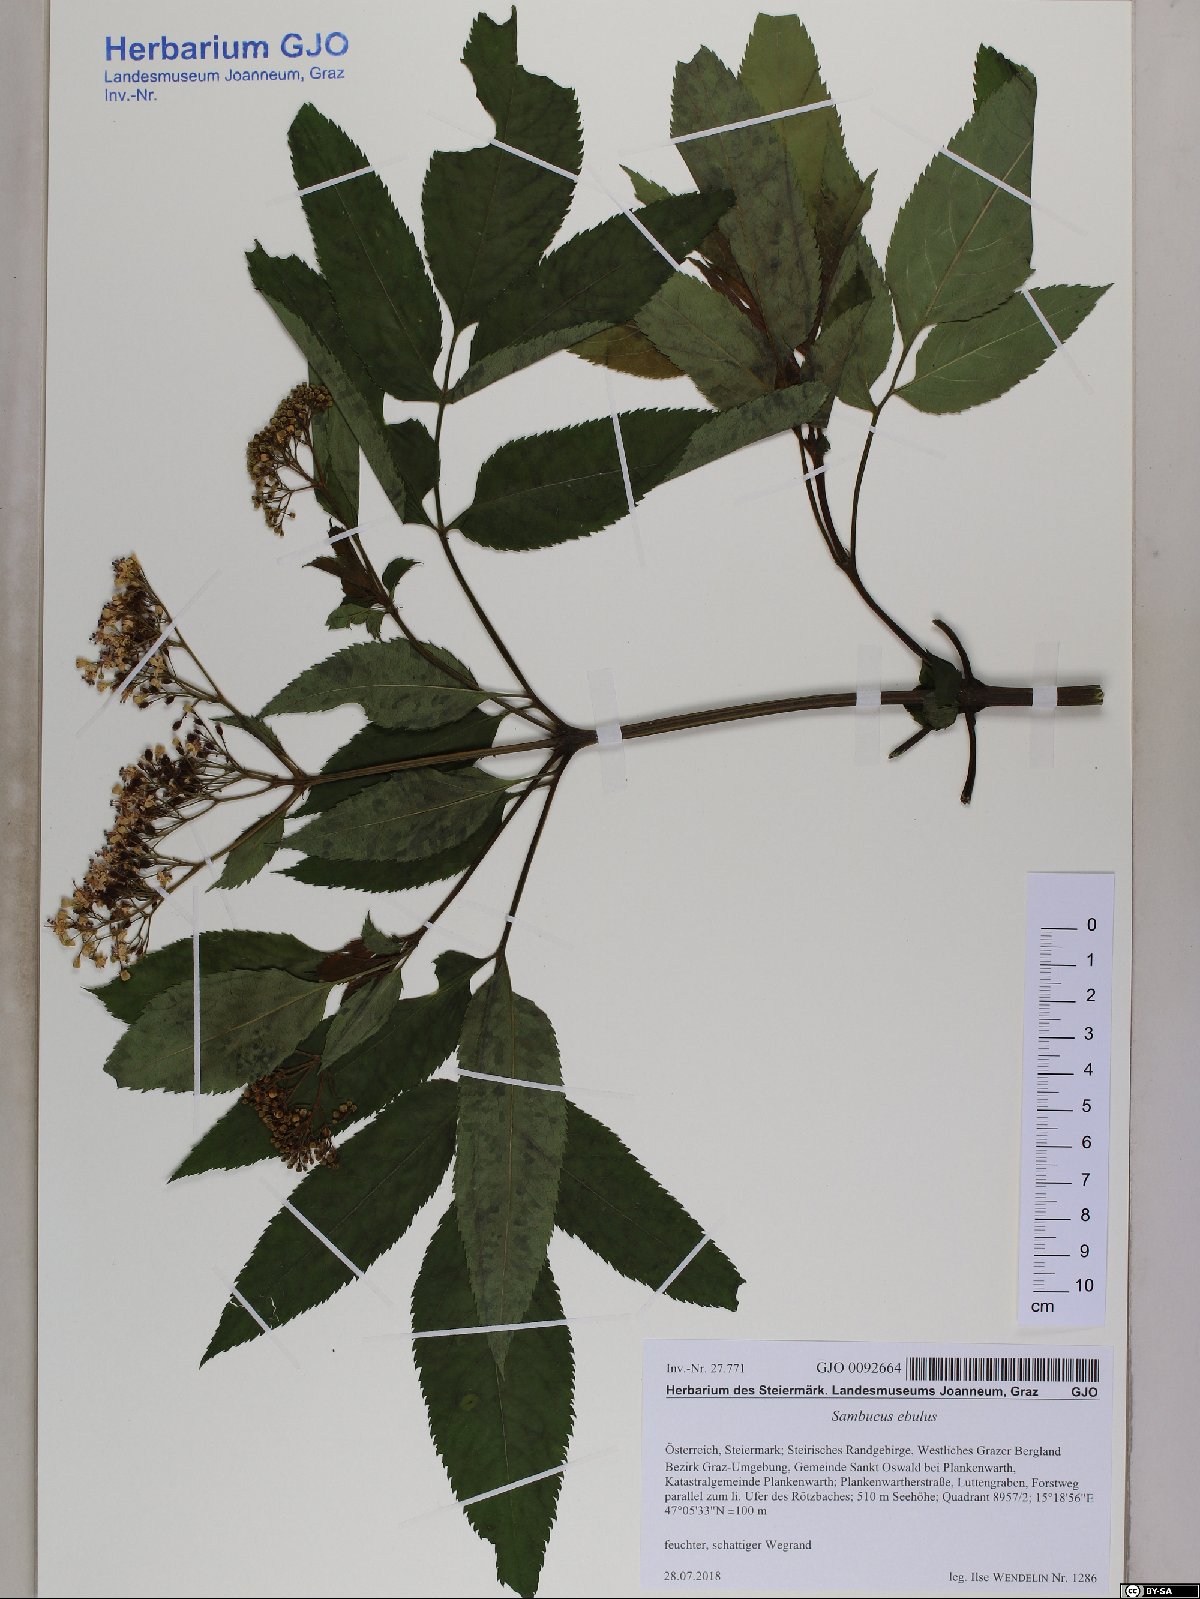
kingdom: Plantae
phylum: Tracheophyta
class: Magnoliopsida
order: Dipsacales
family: Viburnaceae
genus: Sambucus
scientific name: Sambucus ebulus
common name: Dwarf elder
